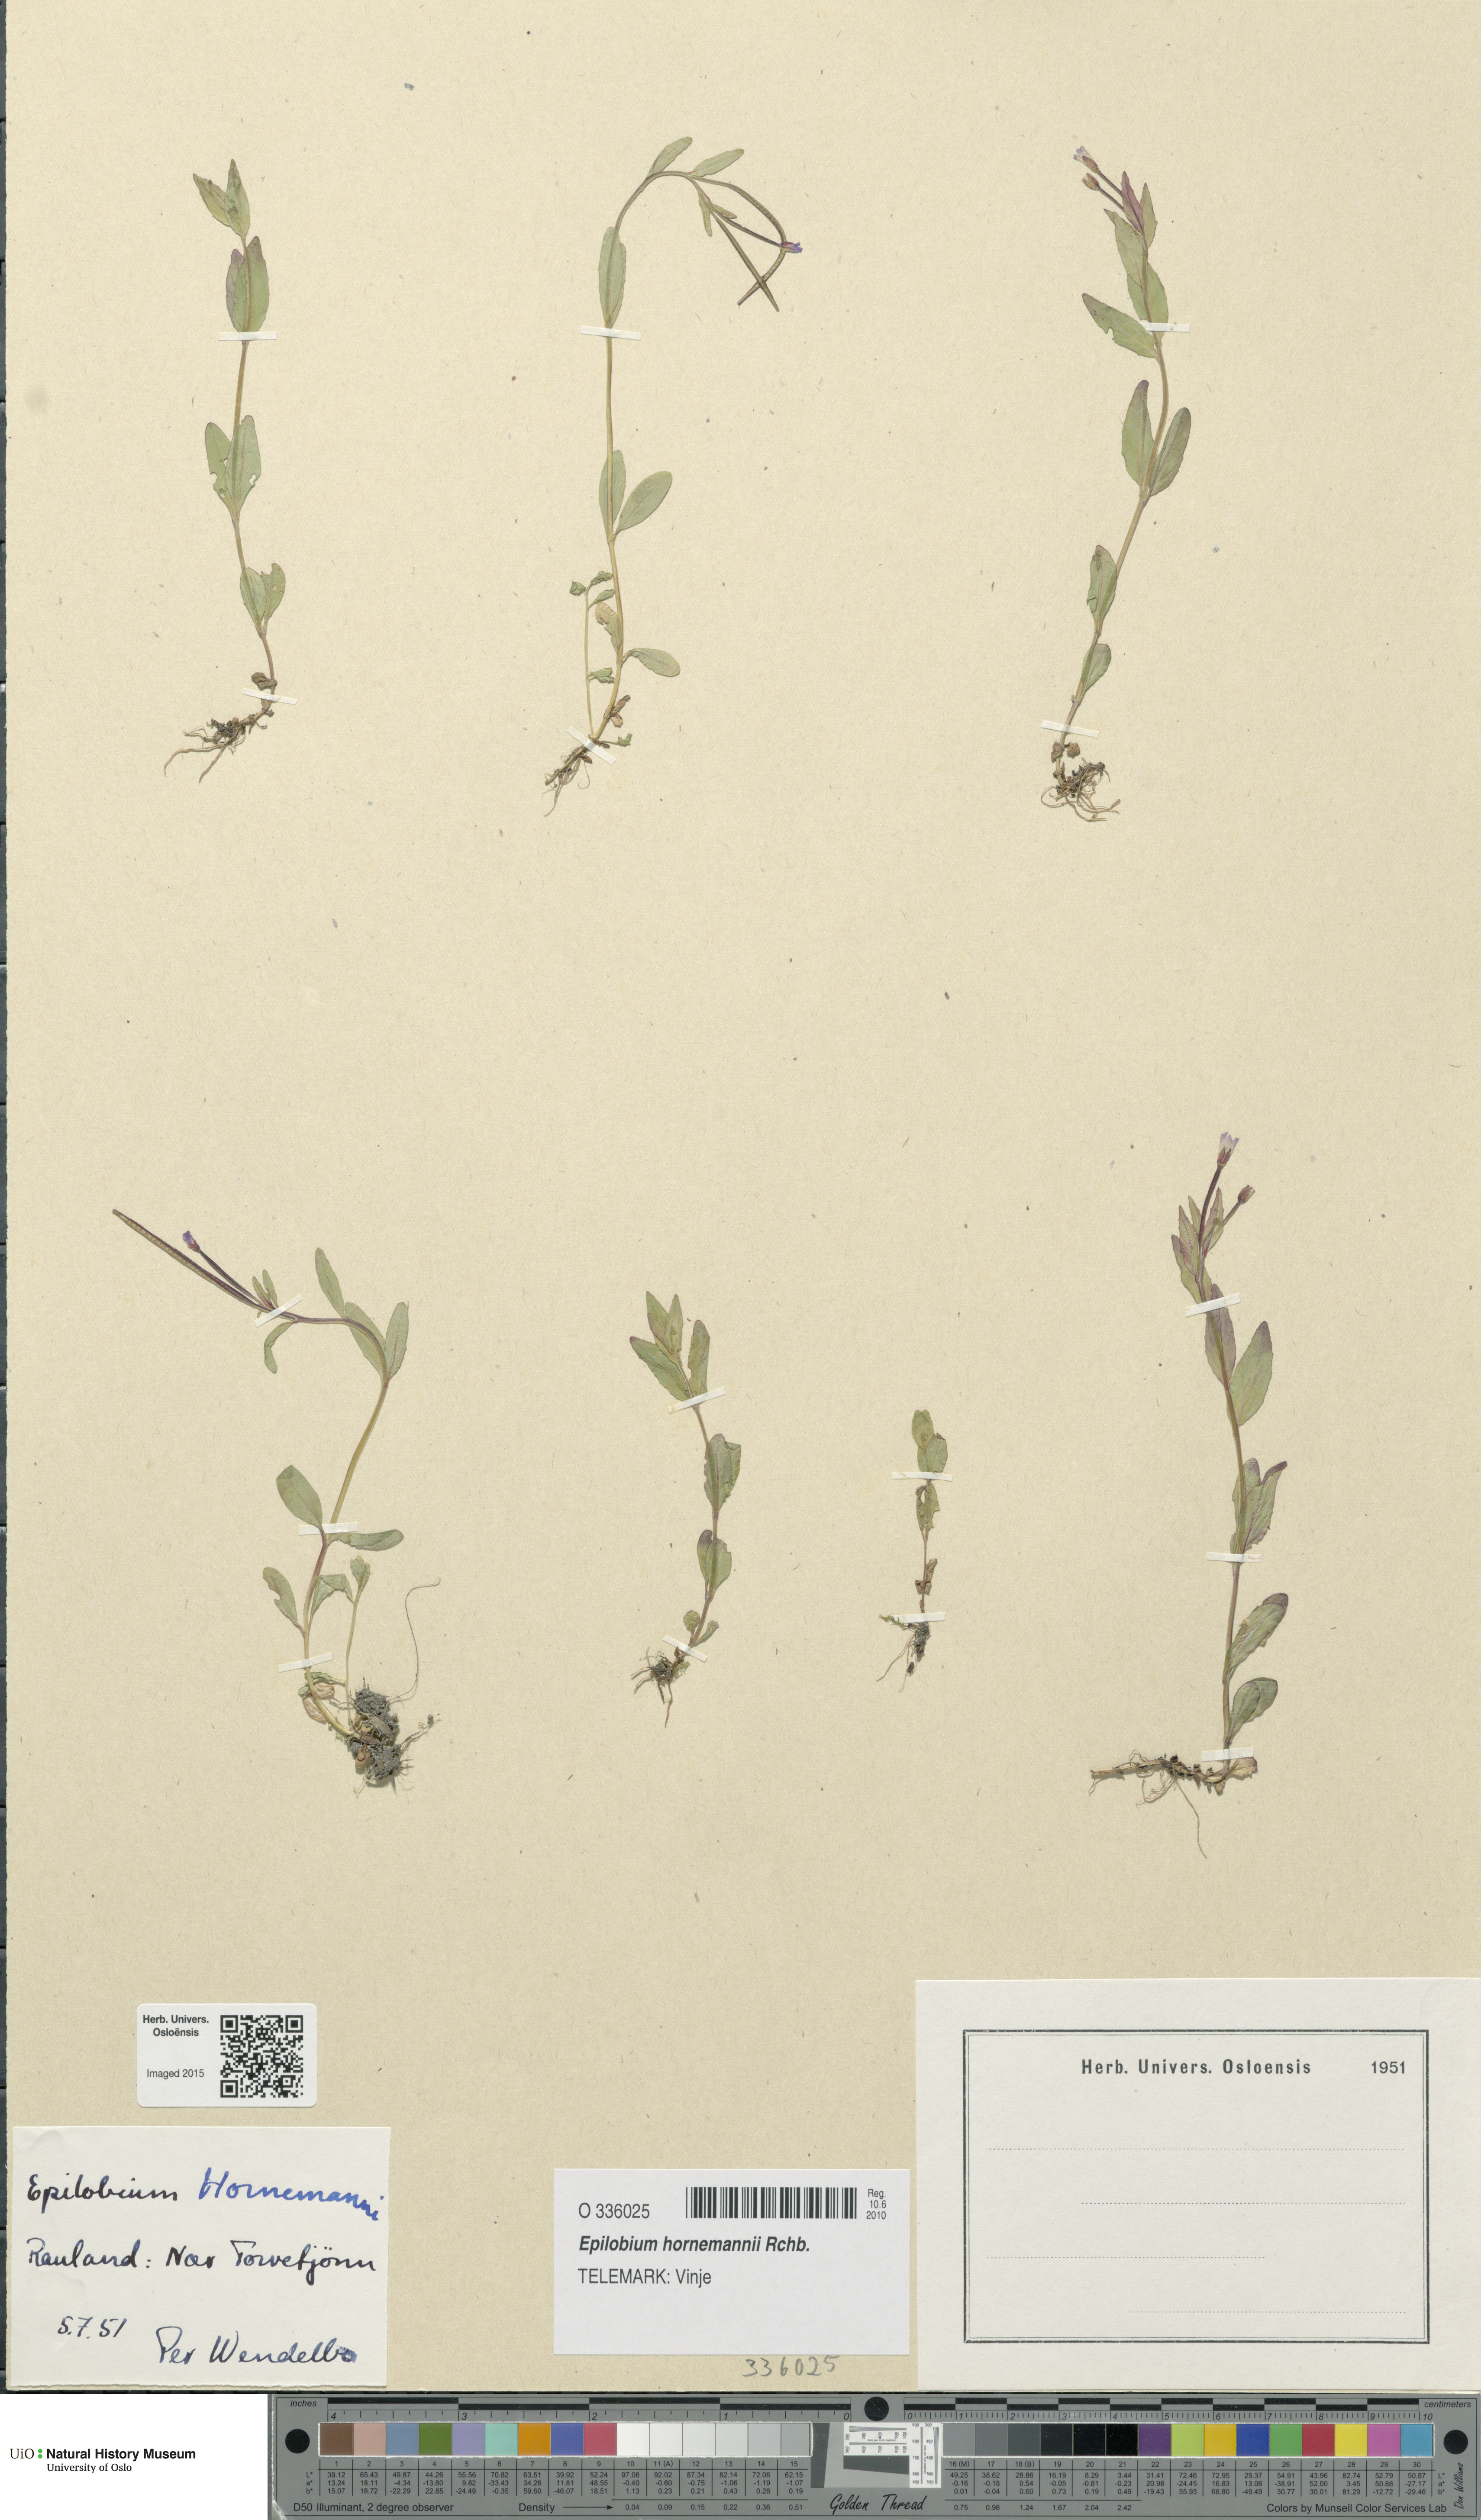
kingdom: Plantae
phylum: Tracheophyta
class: Magnoliopsida
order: Myrtales
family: Onagraceae
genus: Epilobium
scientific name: Epilobium hornemannii
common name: Hornemann's willowherb
